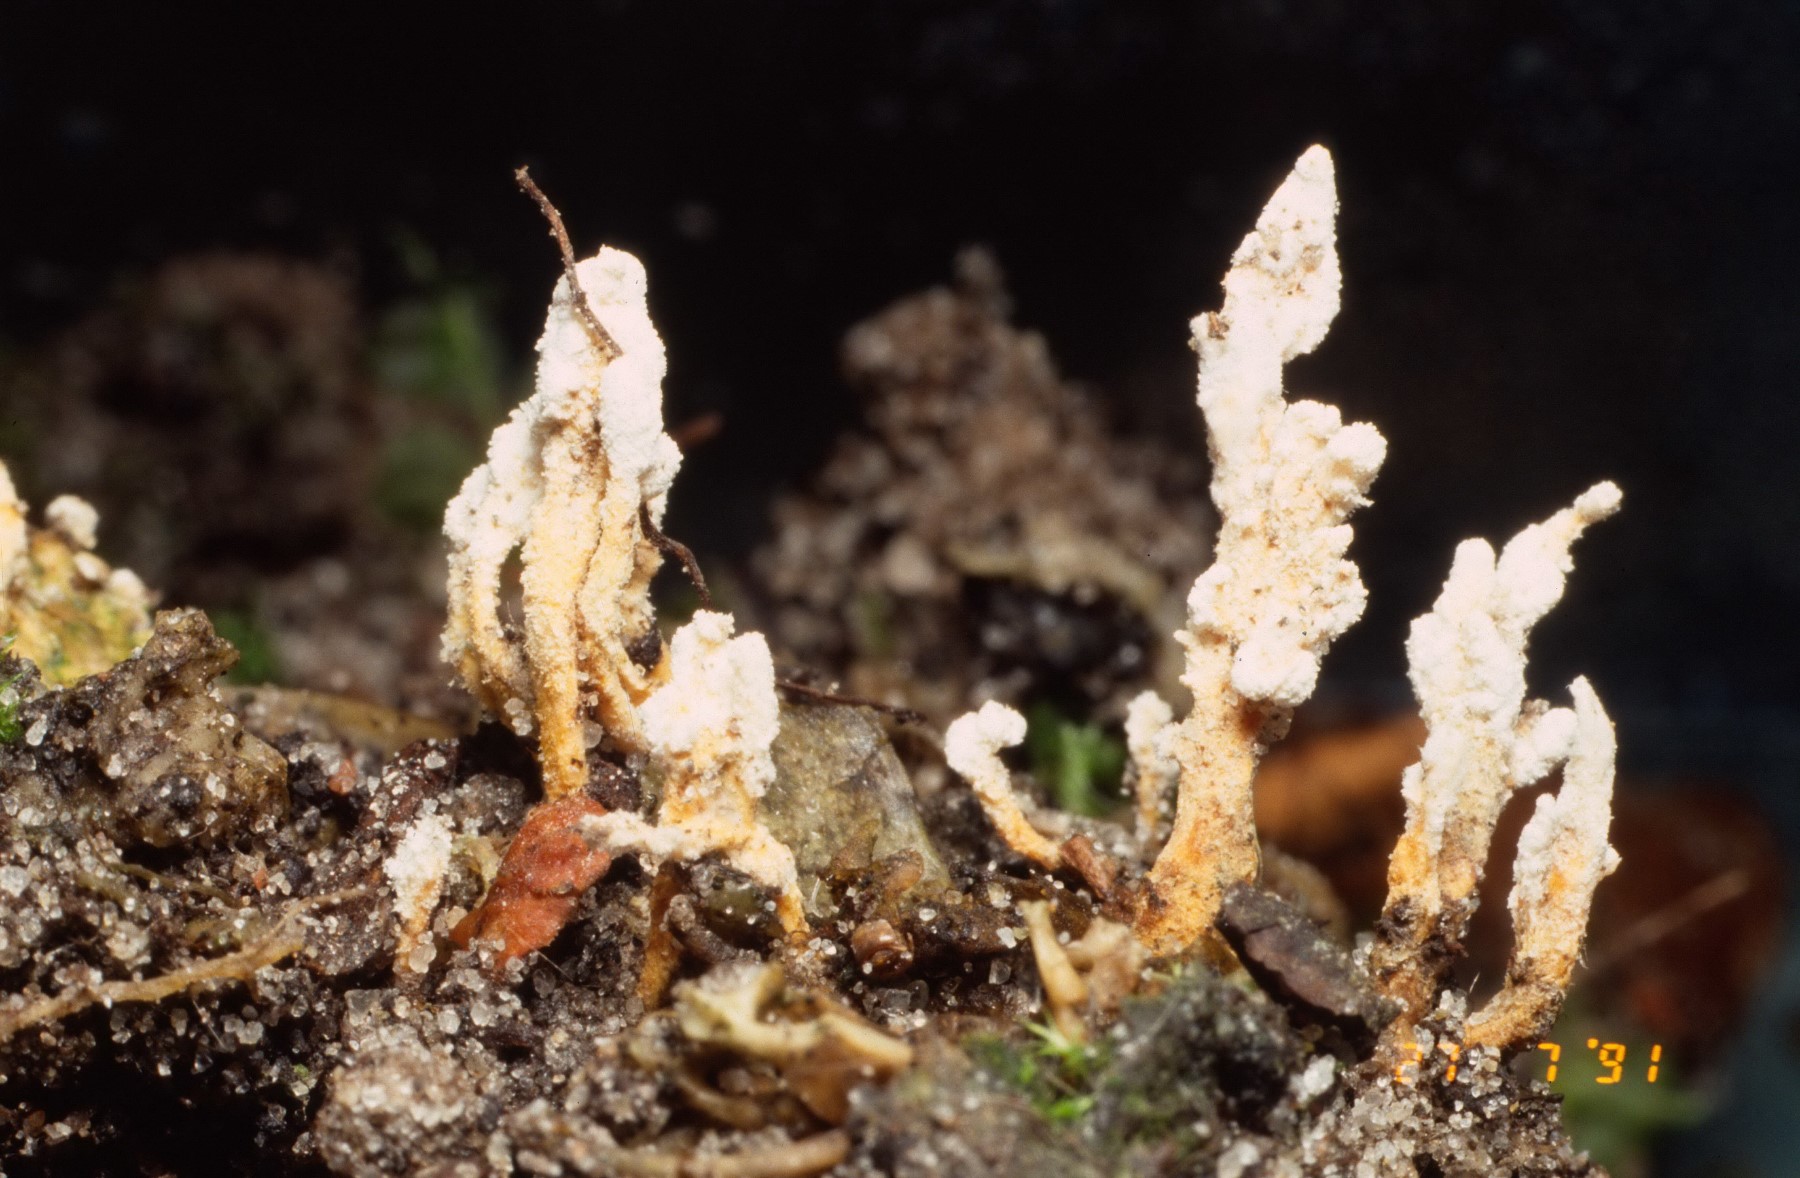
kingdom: Fungi
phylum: Ascomycota
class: Sordariomycetes
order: Hypocreales
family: Cordycipitaceae
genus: Cordyceps
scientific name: Cordyceps farinosa
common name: melet snyltekølle
